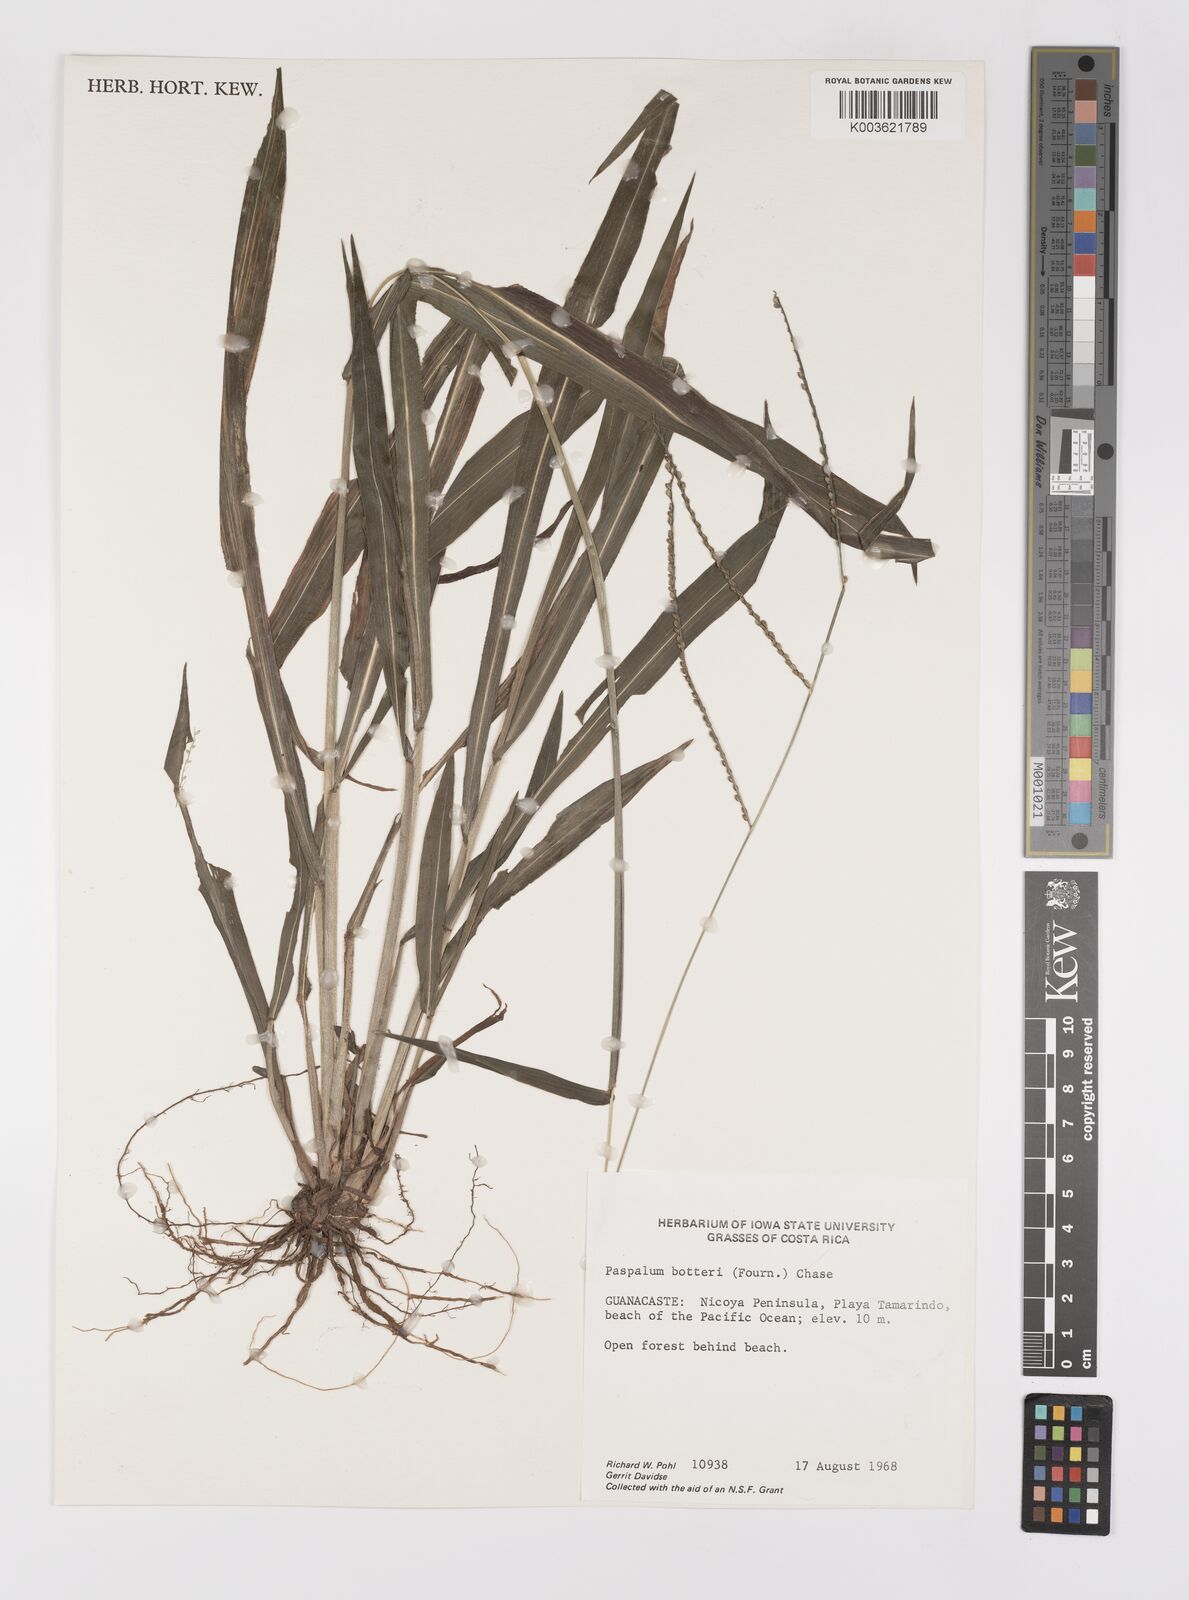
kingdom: Plantae
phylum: Tracheophyta
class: Liliopsida
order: Poales
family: Poaceae
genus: Paspalum
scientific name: Paspalum botterii
